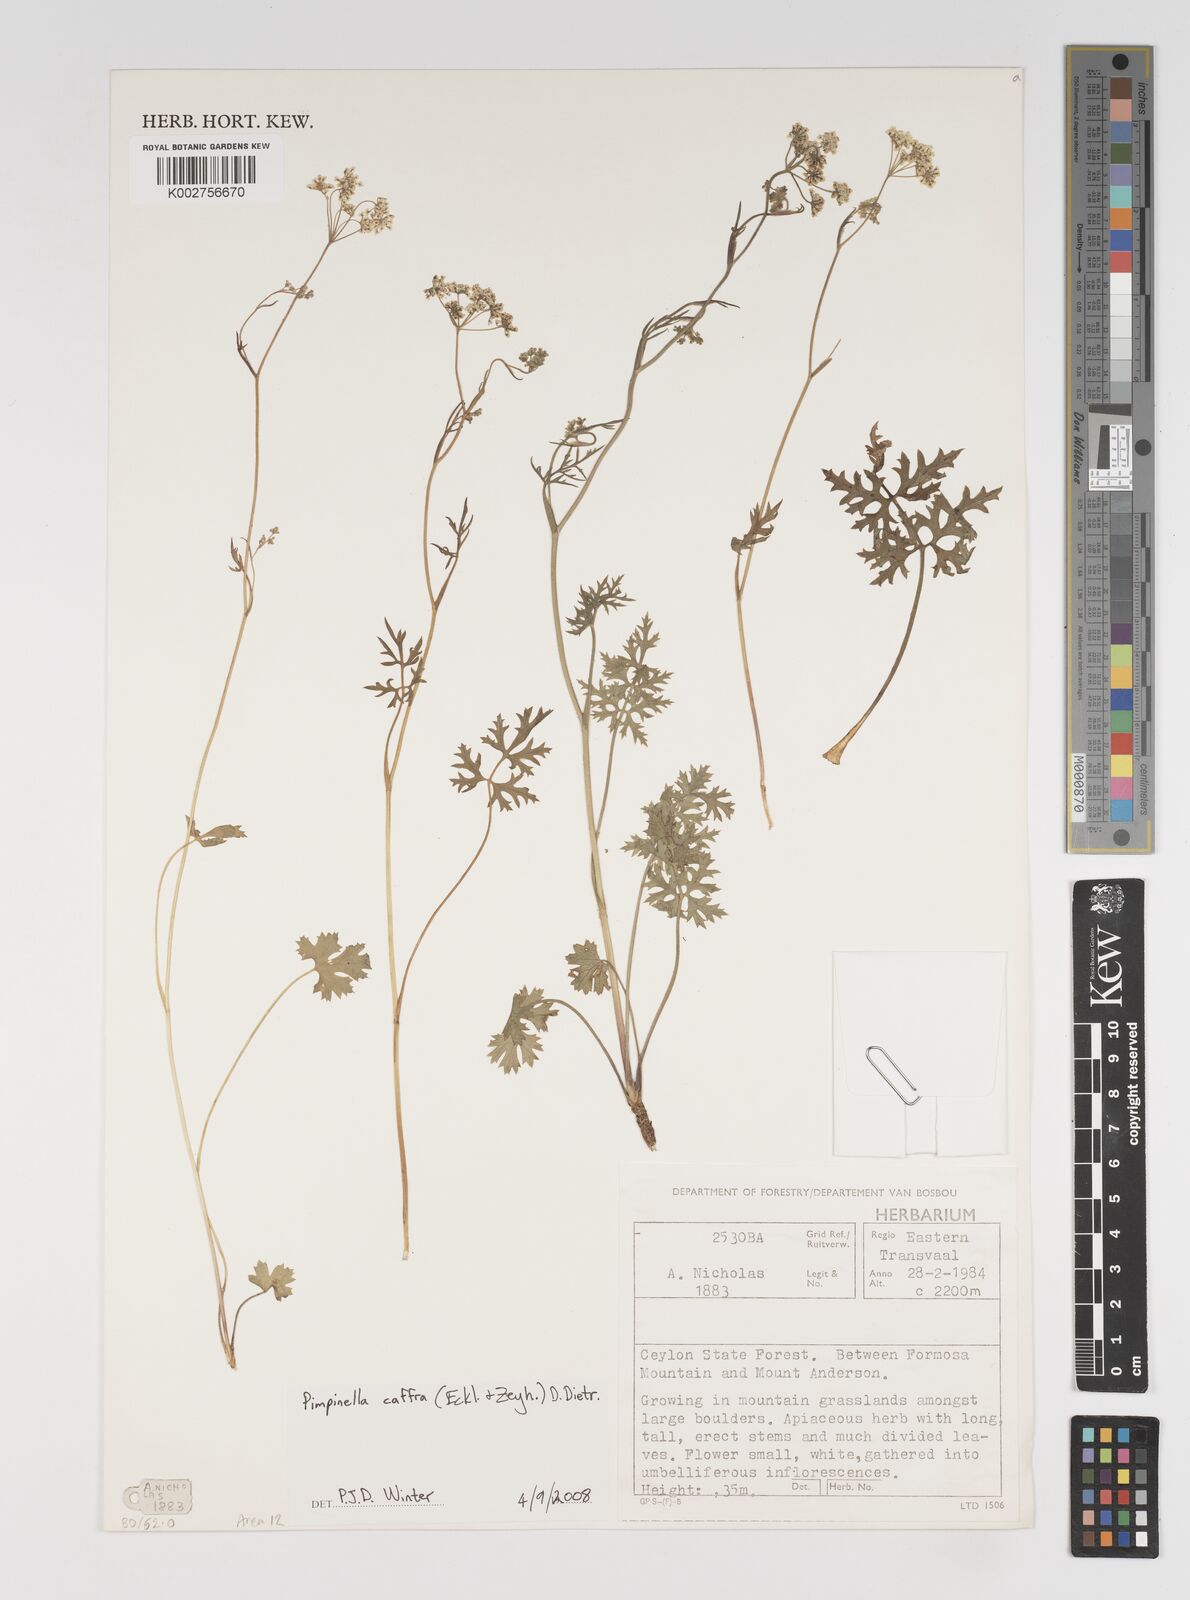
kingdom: Plantae
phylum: Tracheophyta
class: Magnoliopsida
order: Apiales
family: Apiaceae
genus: Pimpinella
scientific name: Pimpinella
